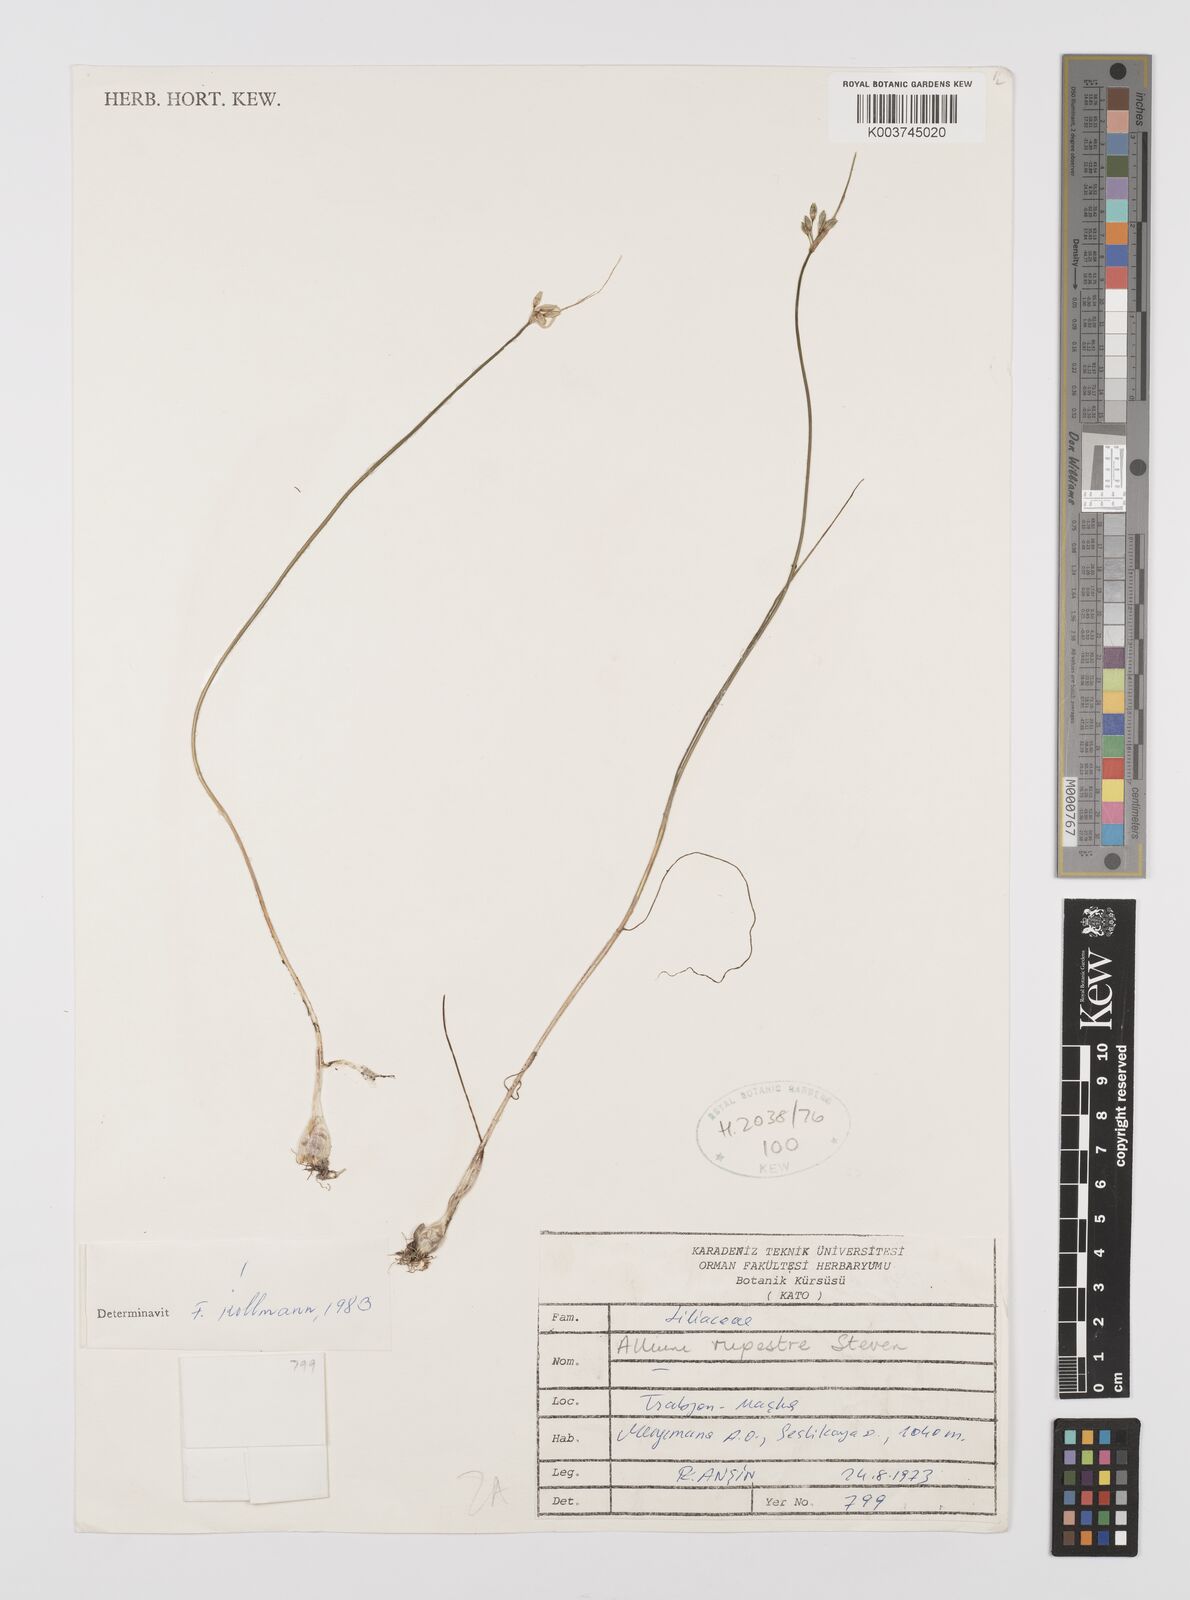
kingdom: Plantae
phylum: Tracheophyta
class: Liliopsida
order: Asparagales
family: Amaryllidaceae
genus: Allium
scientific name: Allium rupestre
